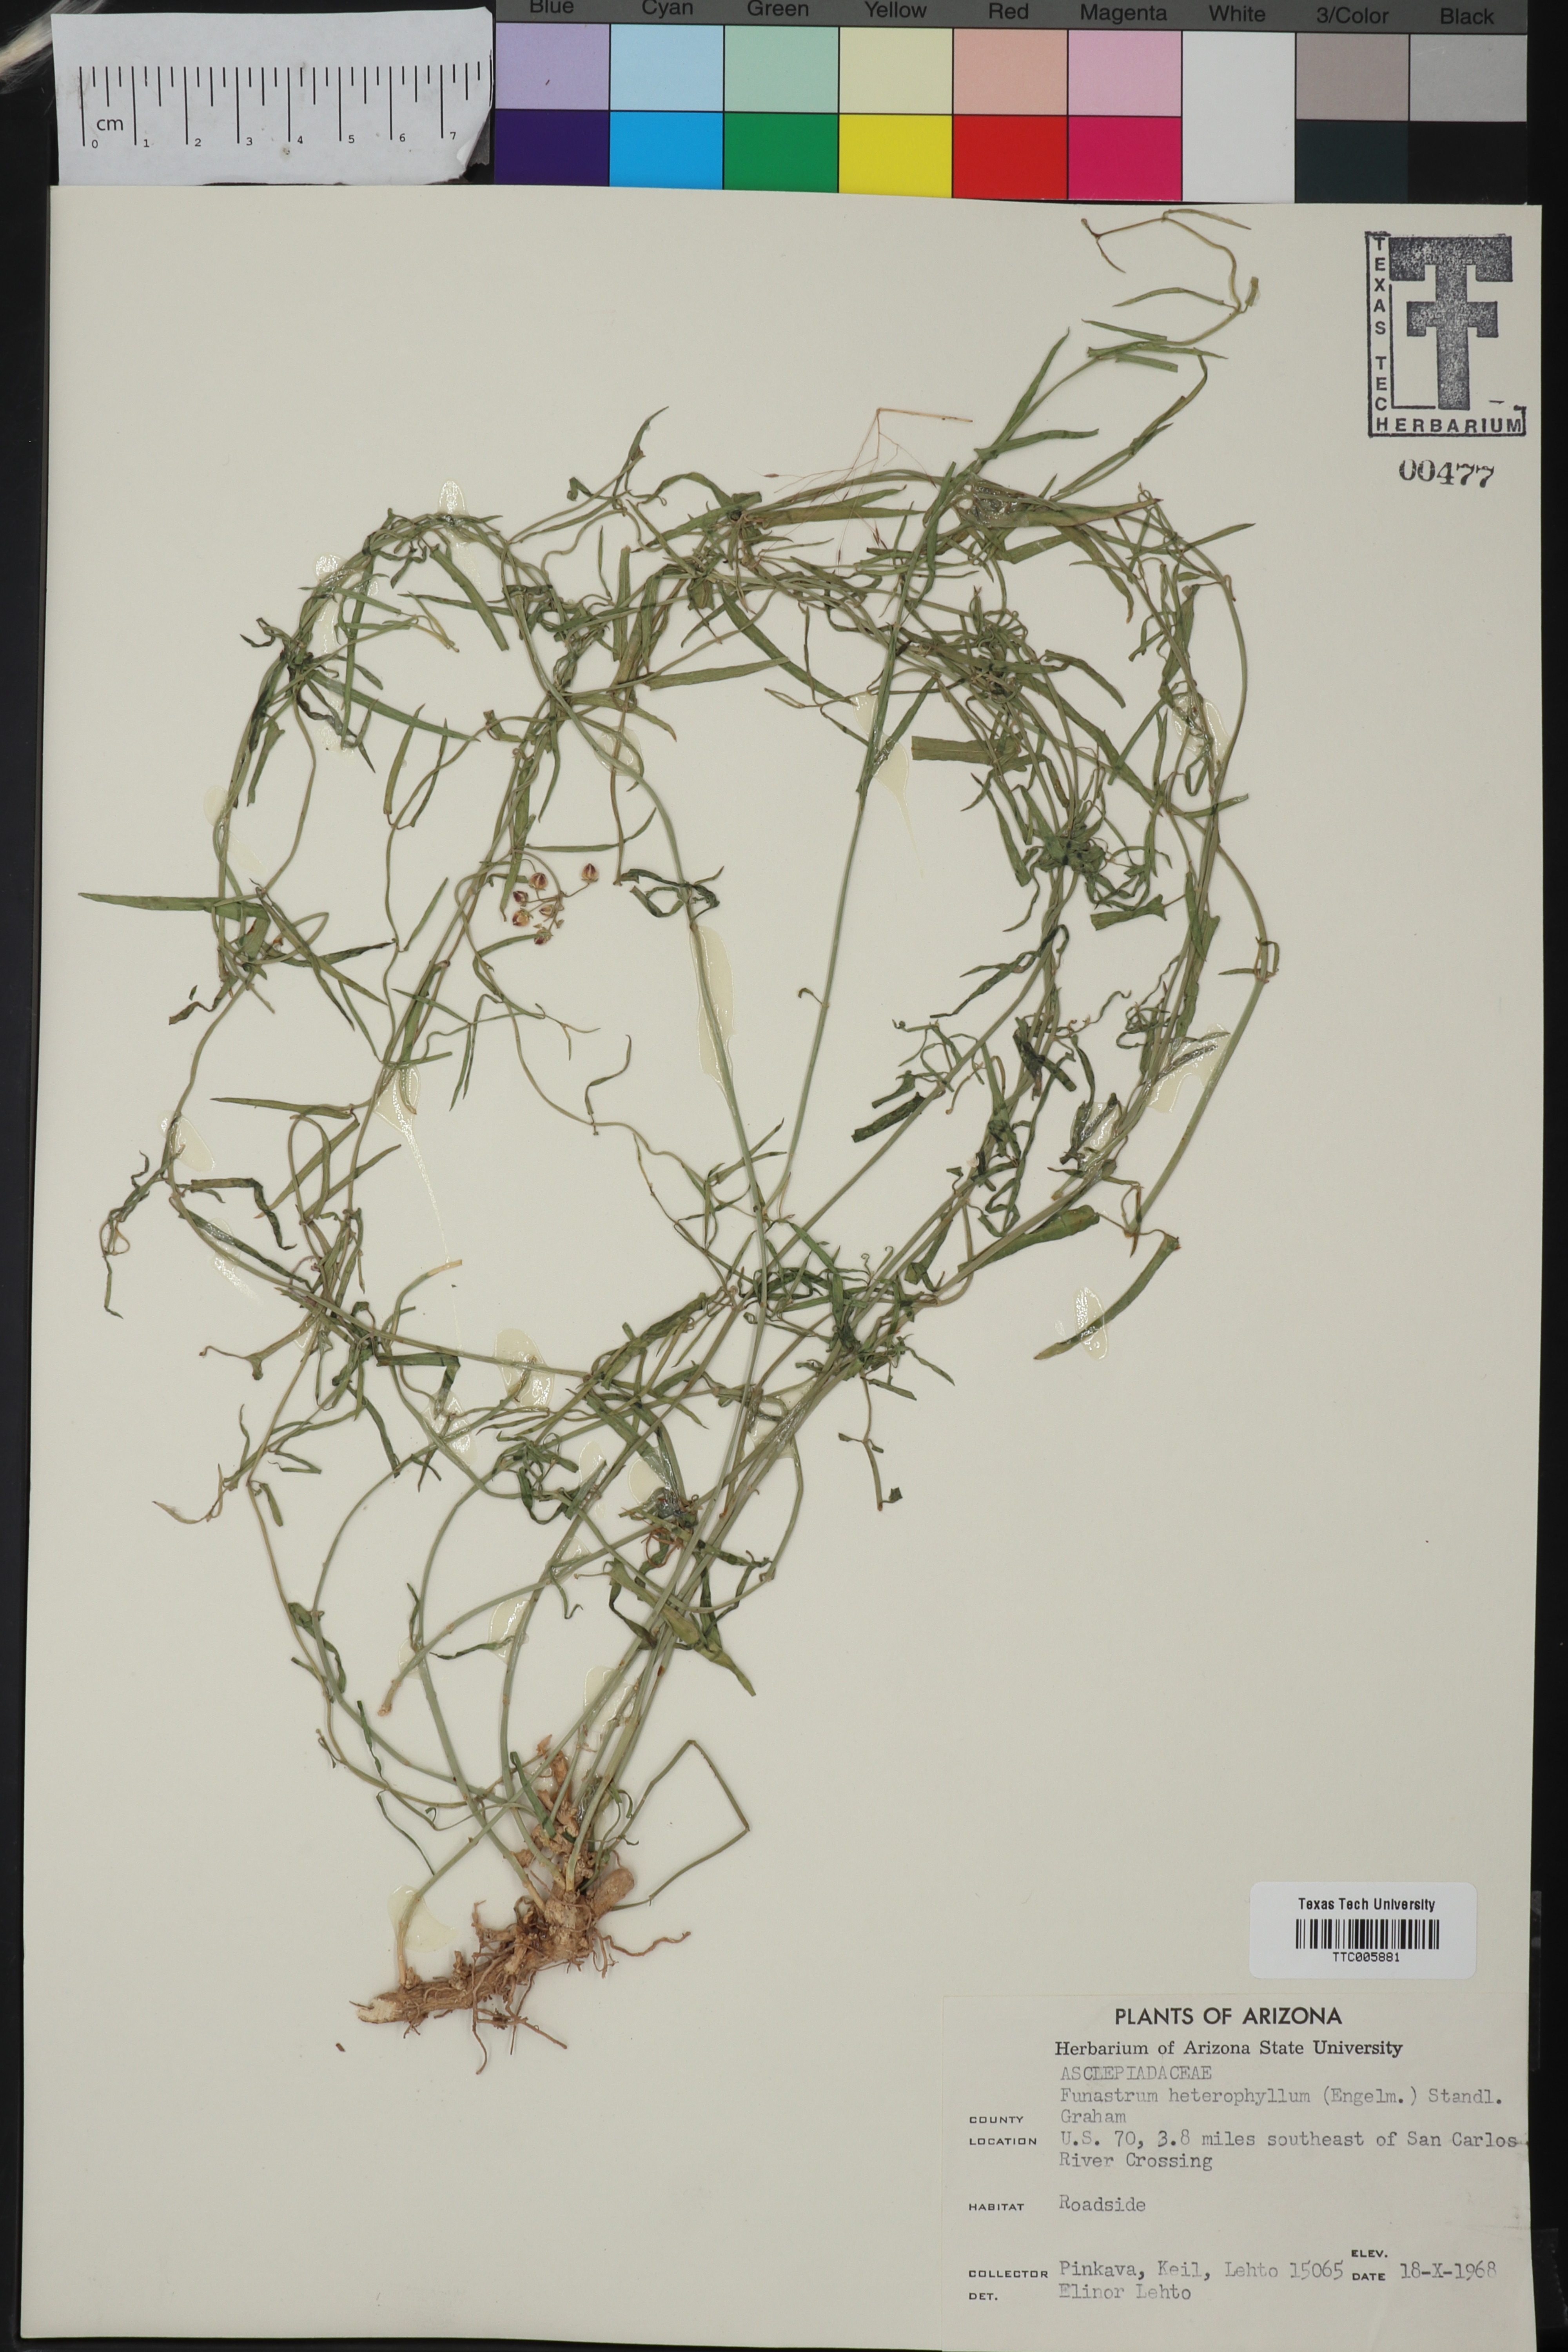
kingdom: Plantae
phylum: Tracheophyta
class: Magnoliopsida
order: Gentianales
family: Apocynaceae
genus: Funastrum
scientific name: Funastrum heterophyllum
